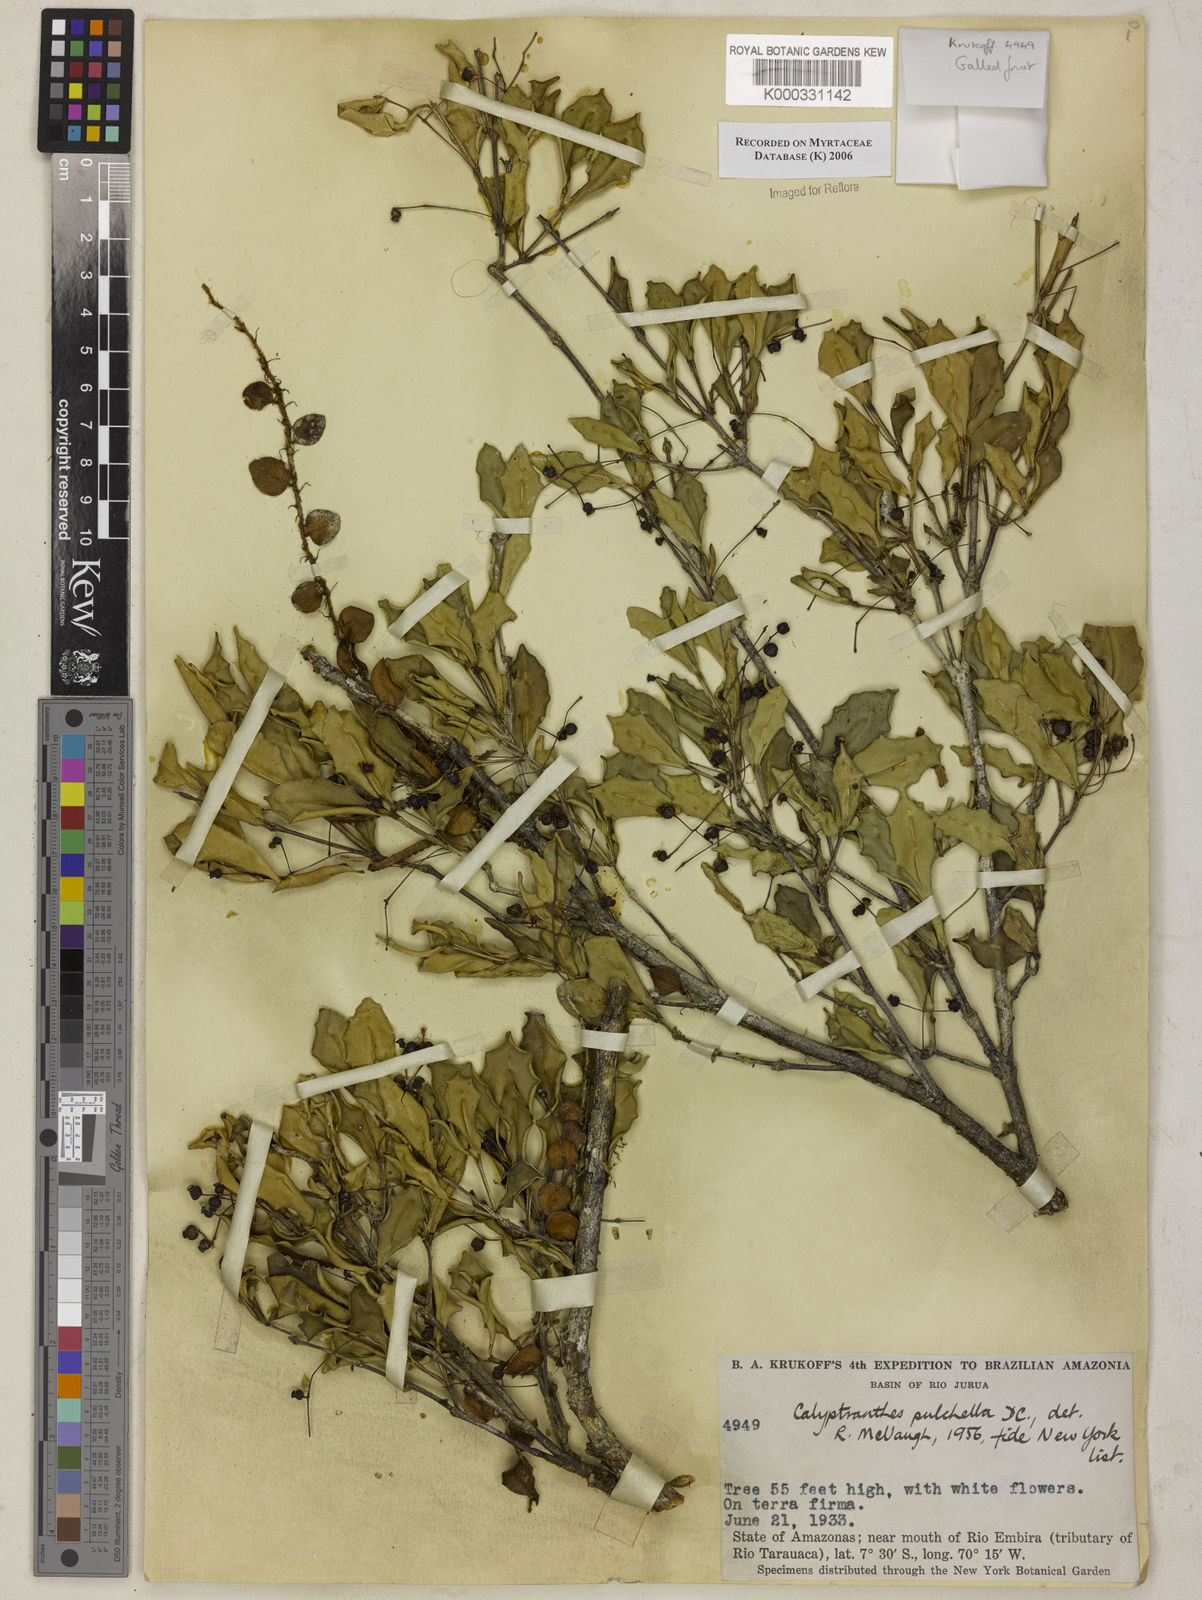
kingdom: Plantae
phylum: Tracheophyta
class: Magnoliopsida
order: Myrtales
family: Myrtaceae
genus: Myrcia
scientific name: Myrcia pulchella
